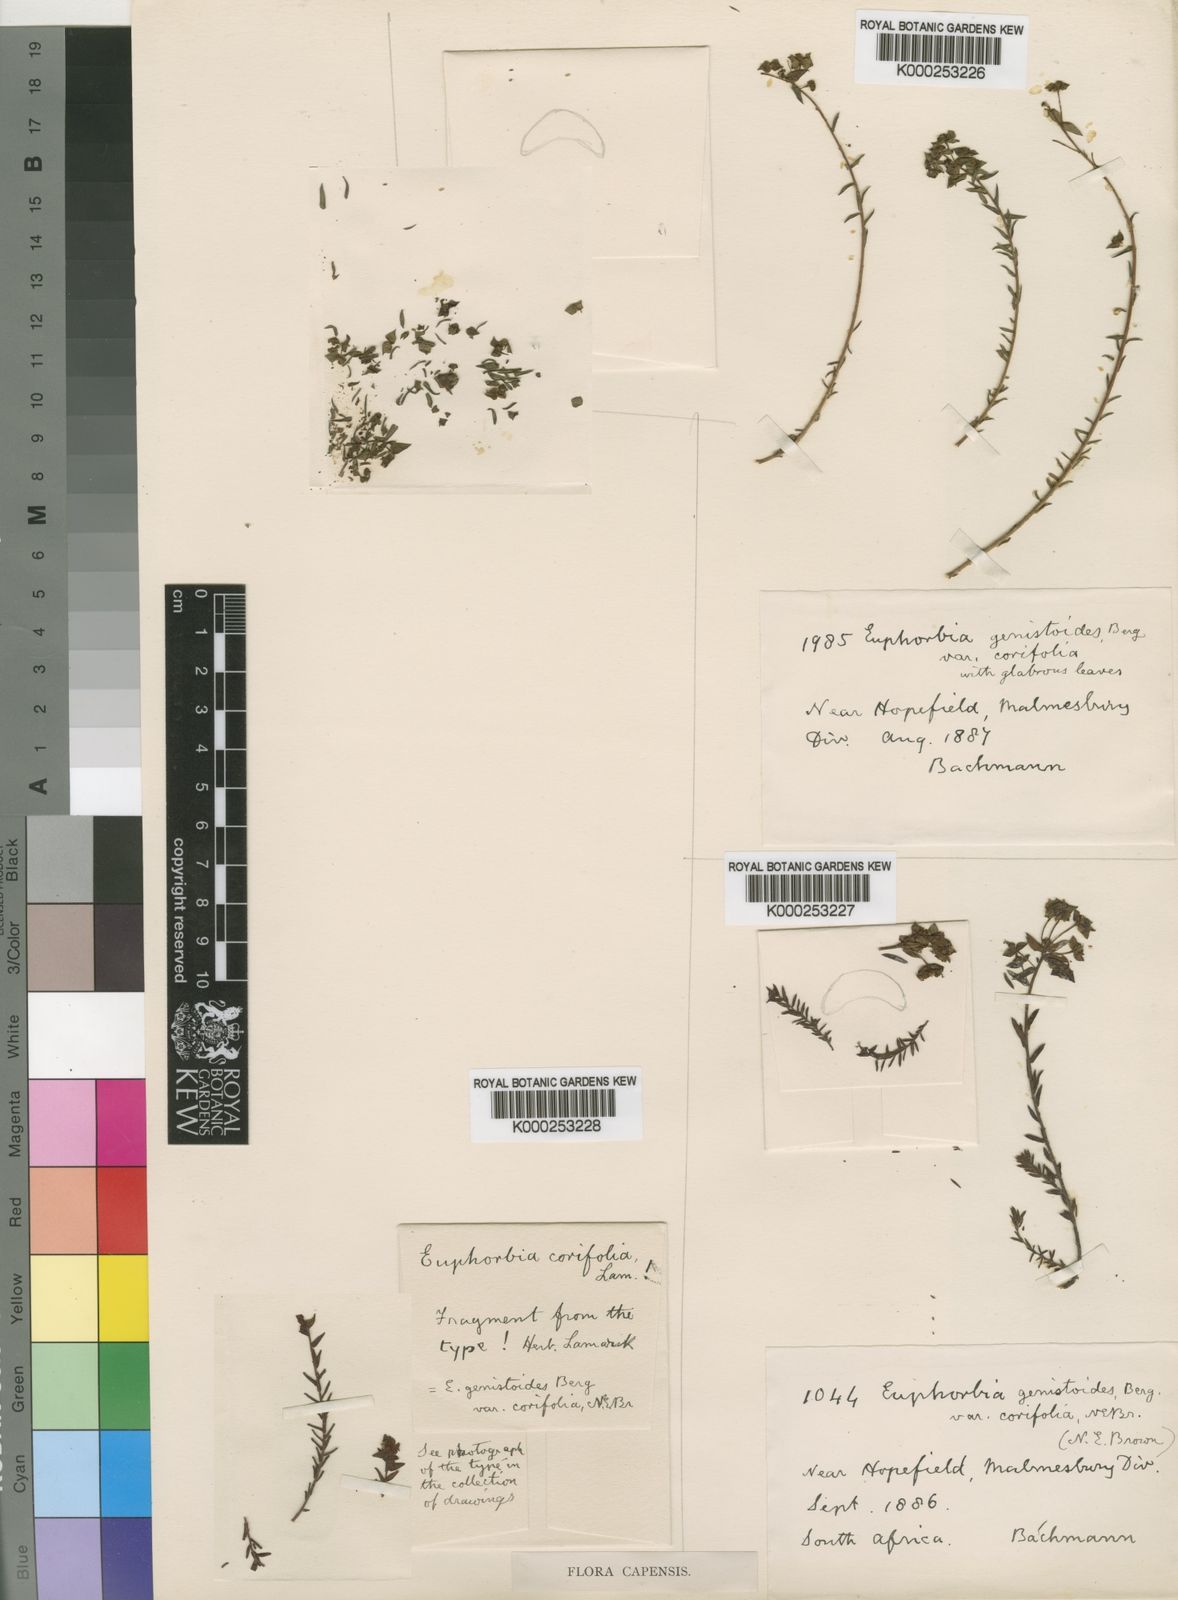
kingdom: Plantae
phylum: Tracheophyta
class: Magnoliopsida
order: Malpighiales
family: Euphorbiaceae
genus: Euphorbia
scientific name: Euphorbia genistoides
